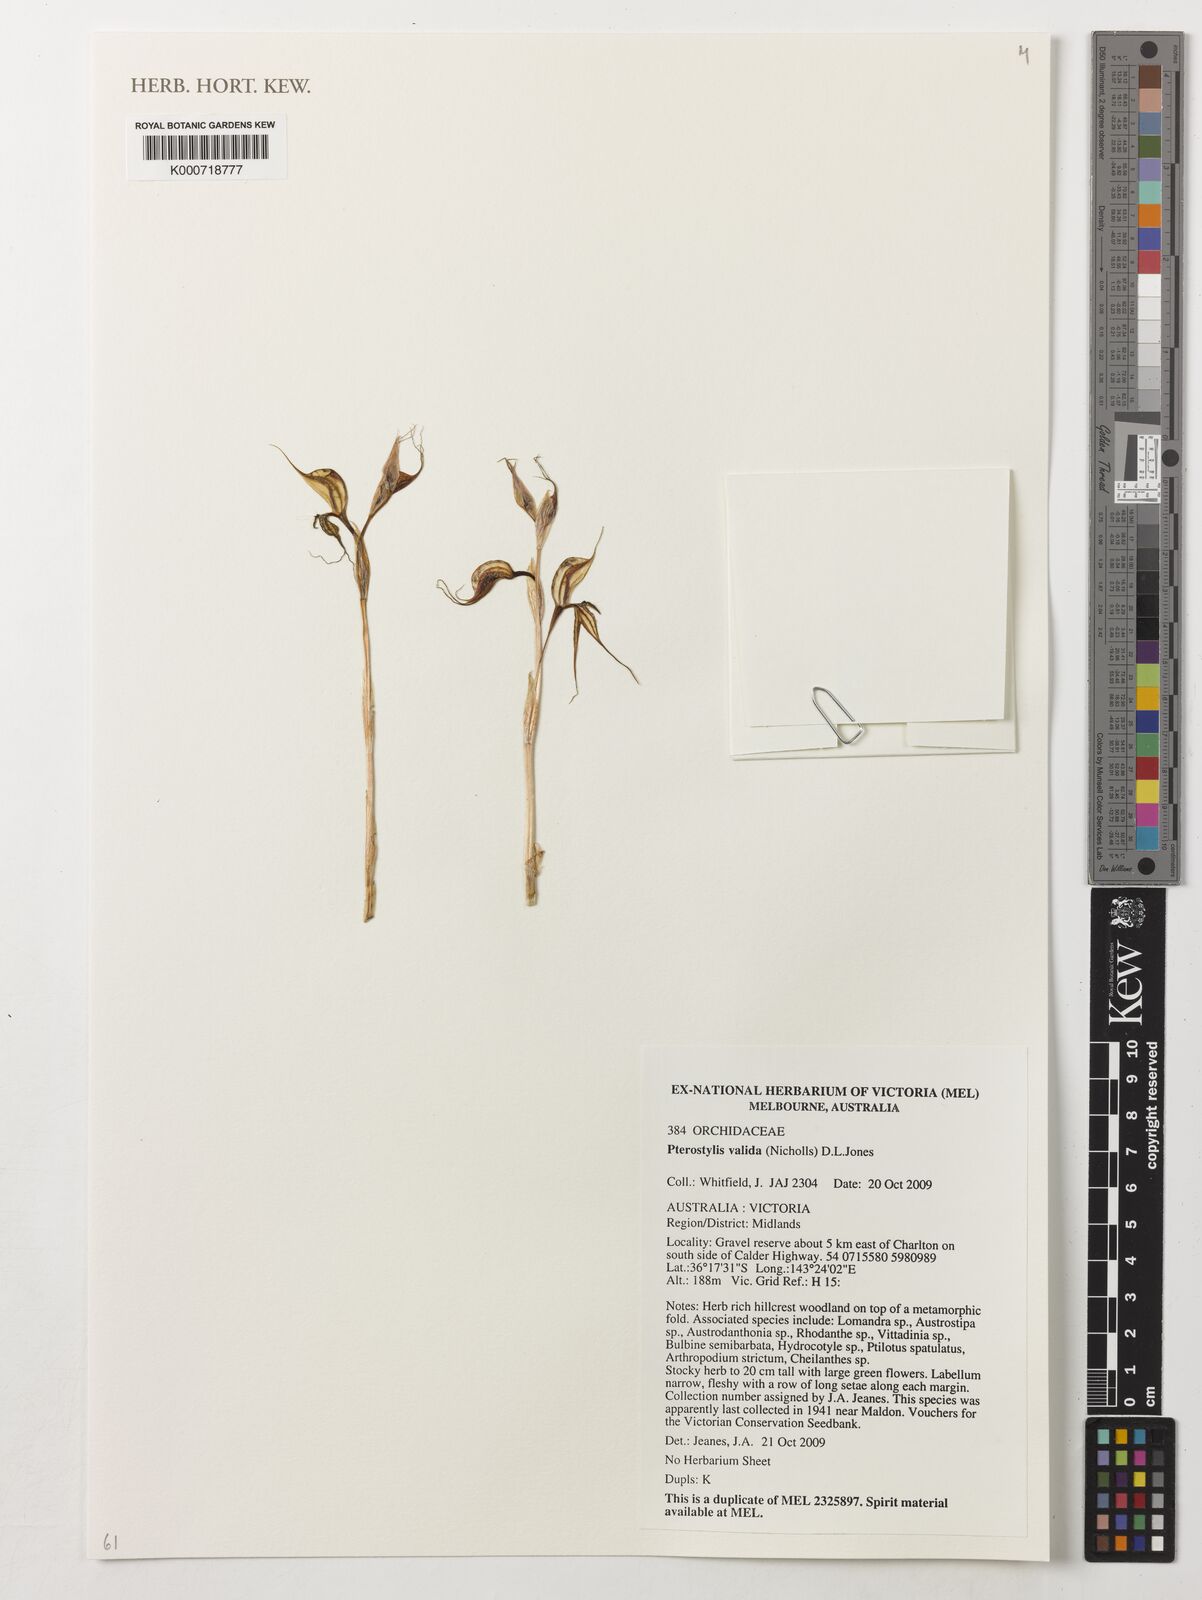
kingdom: Plantae
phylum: Tracheophyta
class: Liliopsida
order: Asparagales
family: Orchidaceae
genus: Pterostylis
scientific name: Pterostylis valida
